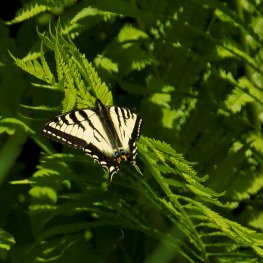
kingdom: Animalia
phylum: Arthropoda
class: Insecta
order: Lepidoptera
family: Papilionidae
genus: Pterourus
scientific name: Pterourus canadensis
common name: Canadian Tiger Swallowtail
